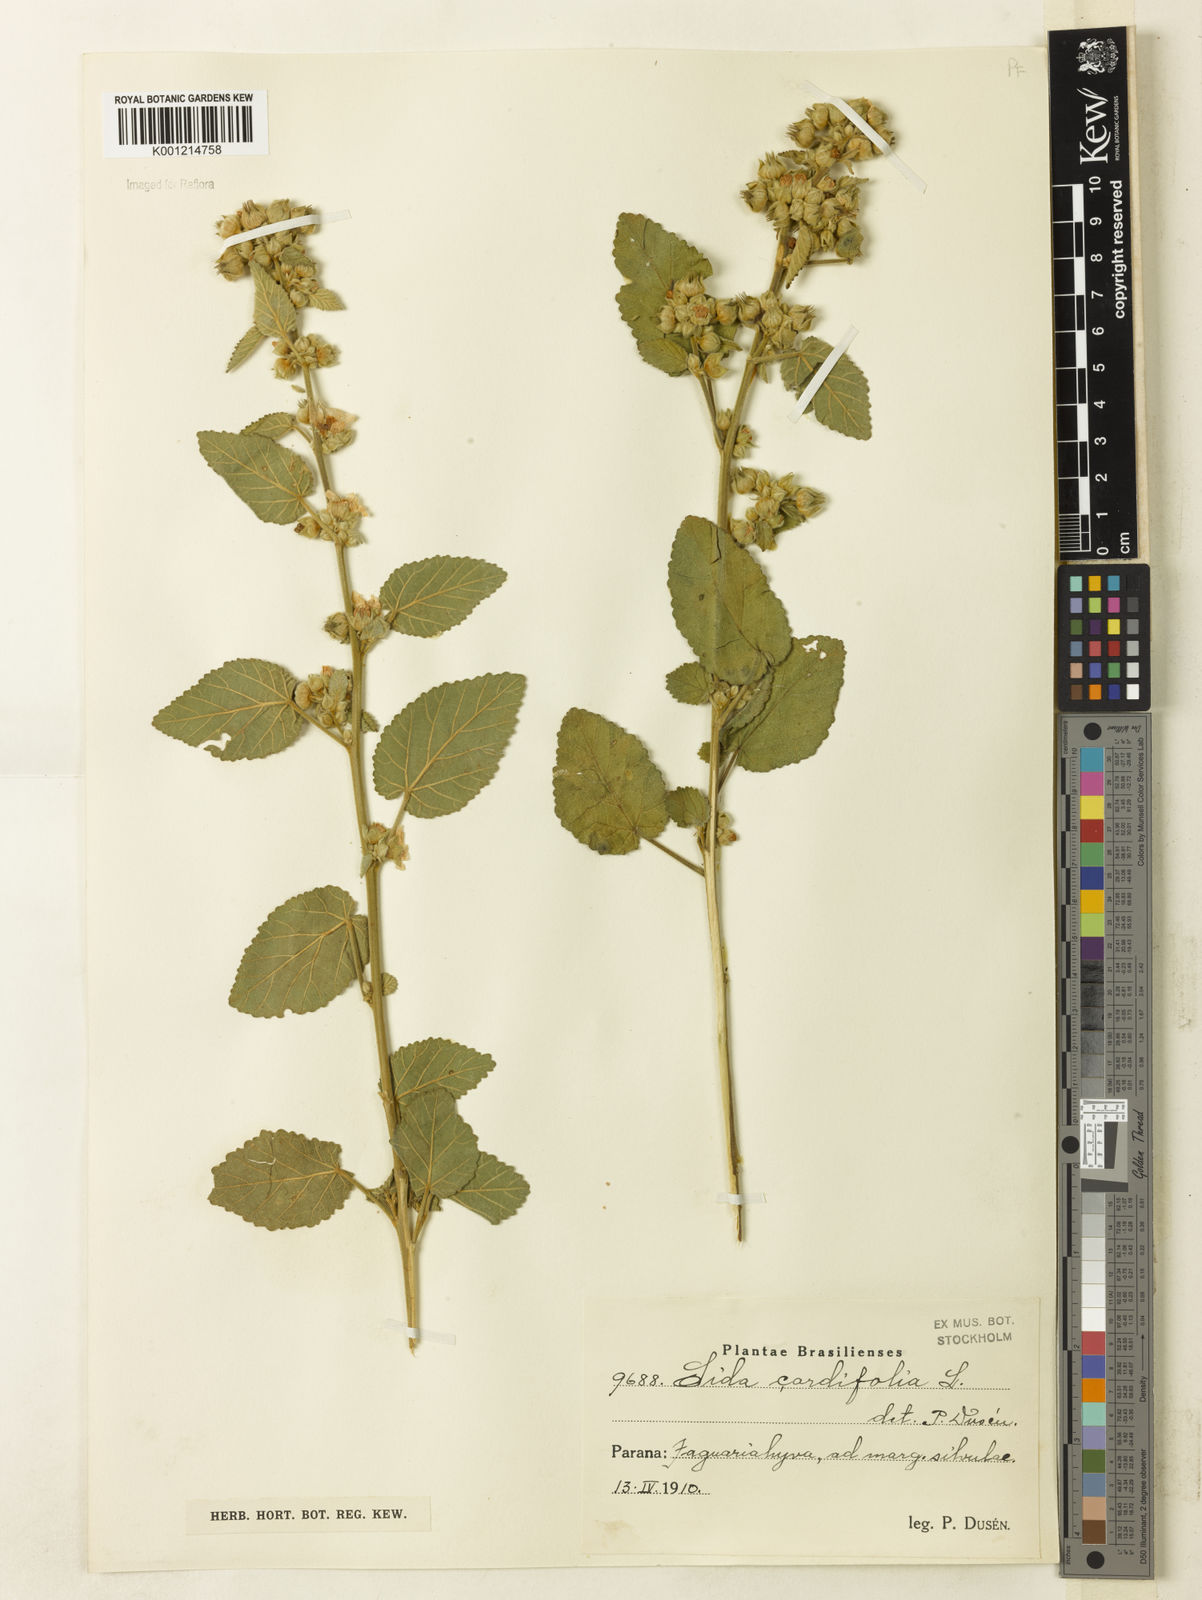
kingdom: Plantae
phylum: Tracheophyta
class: Magnoliopsida
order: Malvales
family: Malvaceae
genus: Sida
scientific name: Sida cordifolia
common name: Ilima
